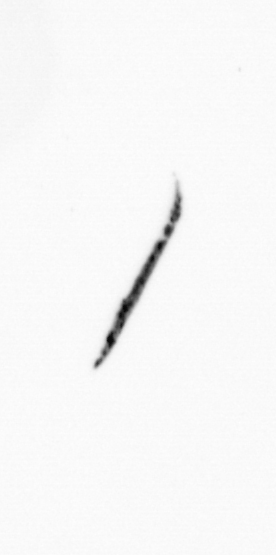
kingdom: Bacteria
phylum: Cyanobacteria
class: Cyanobacteriia
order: Cyanobacteriales
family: Microcoleaceae
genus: Trichodesmium
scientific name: Trichodesmium
